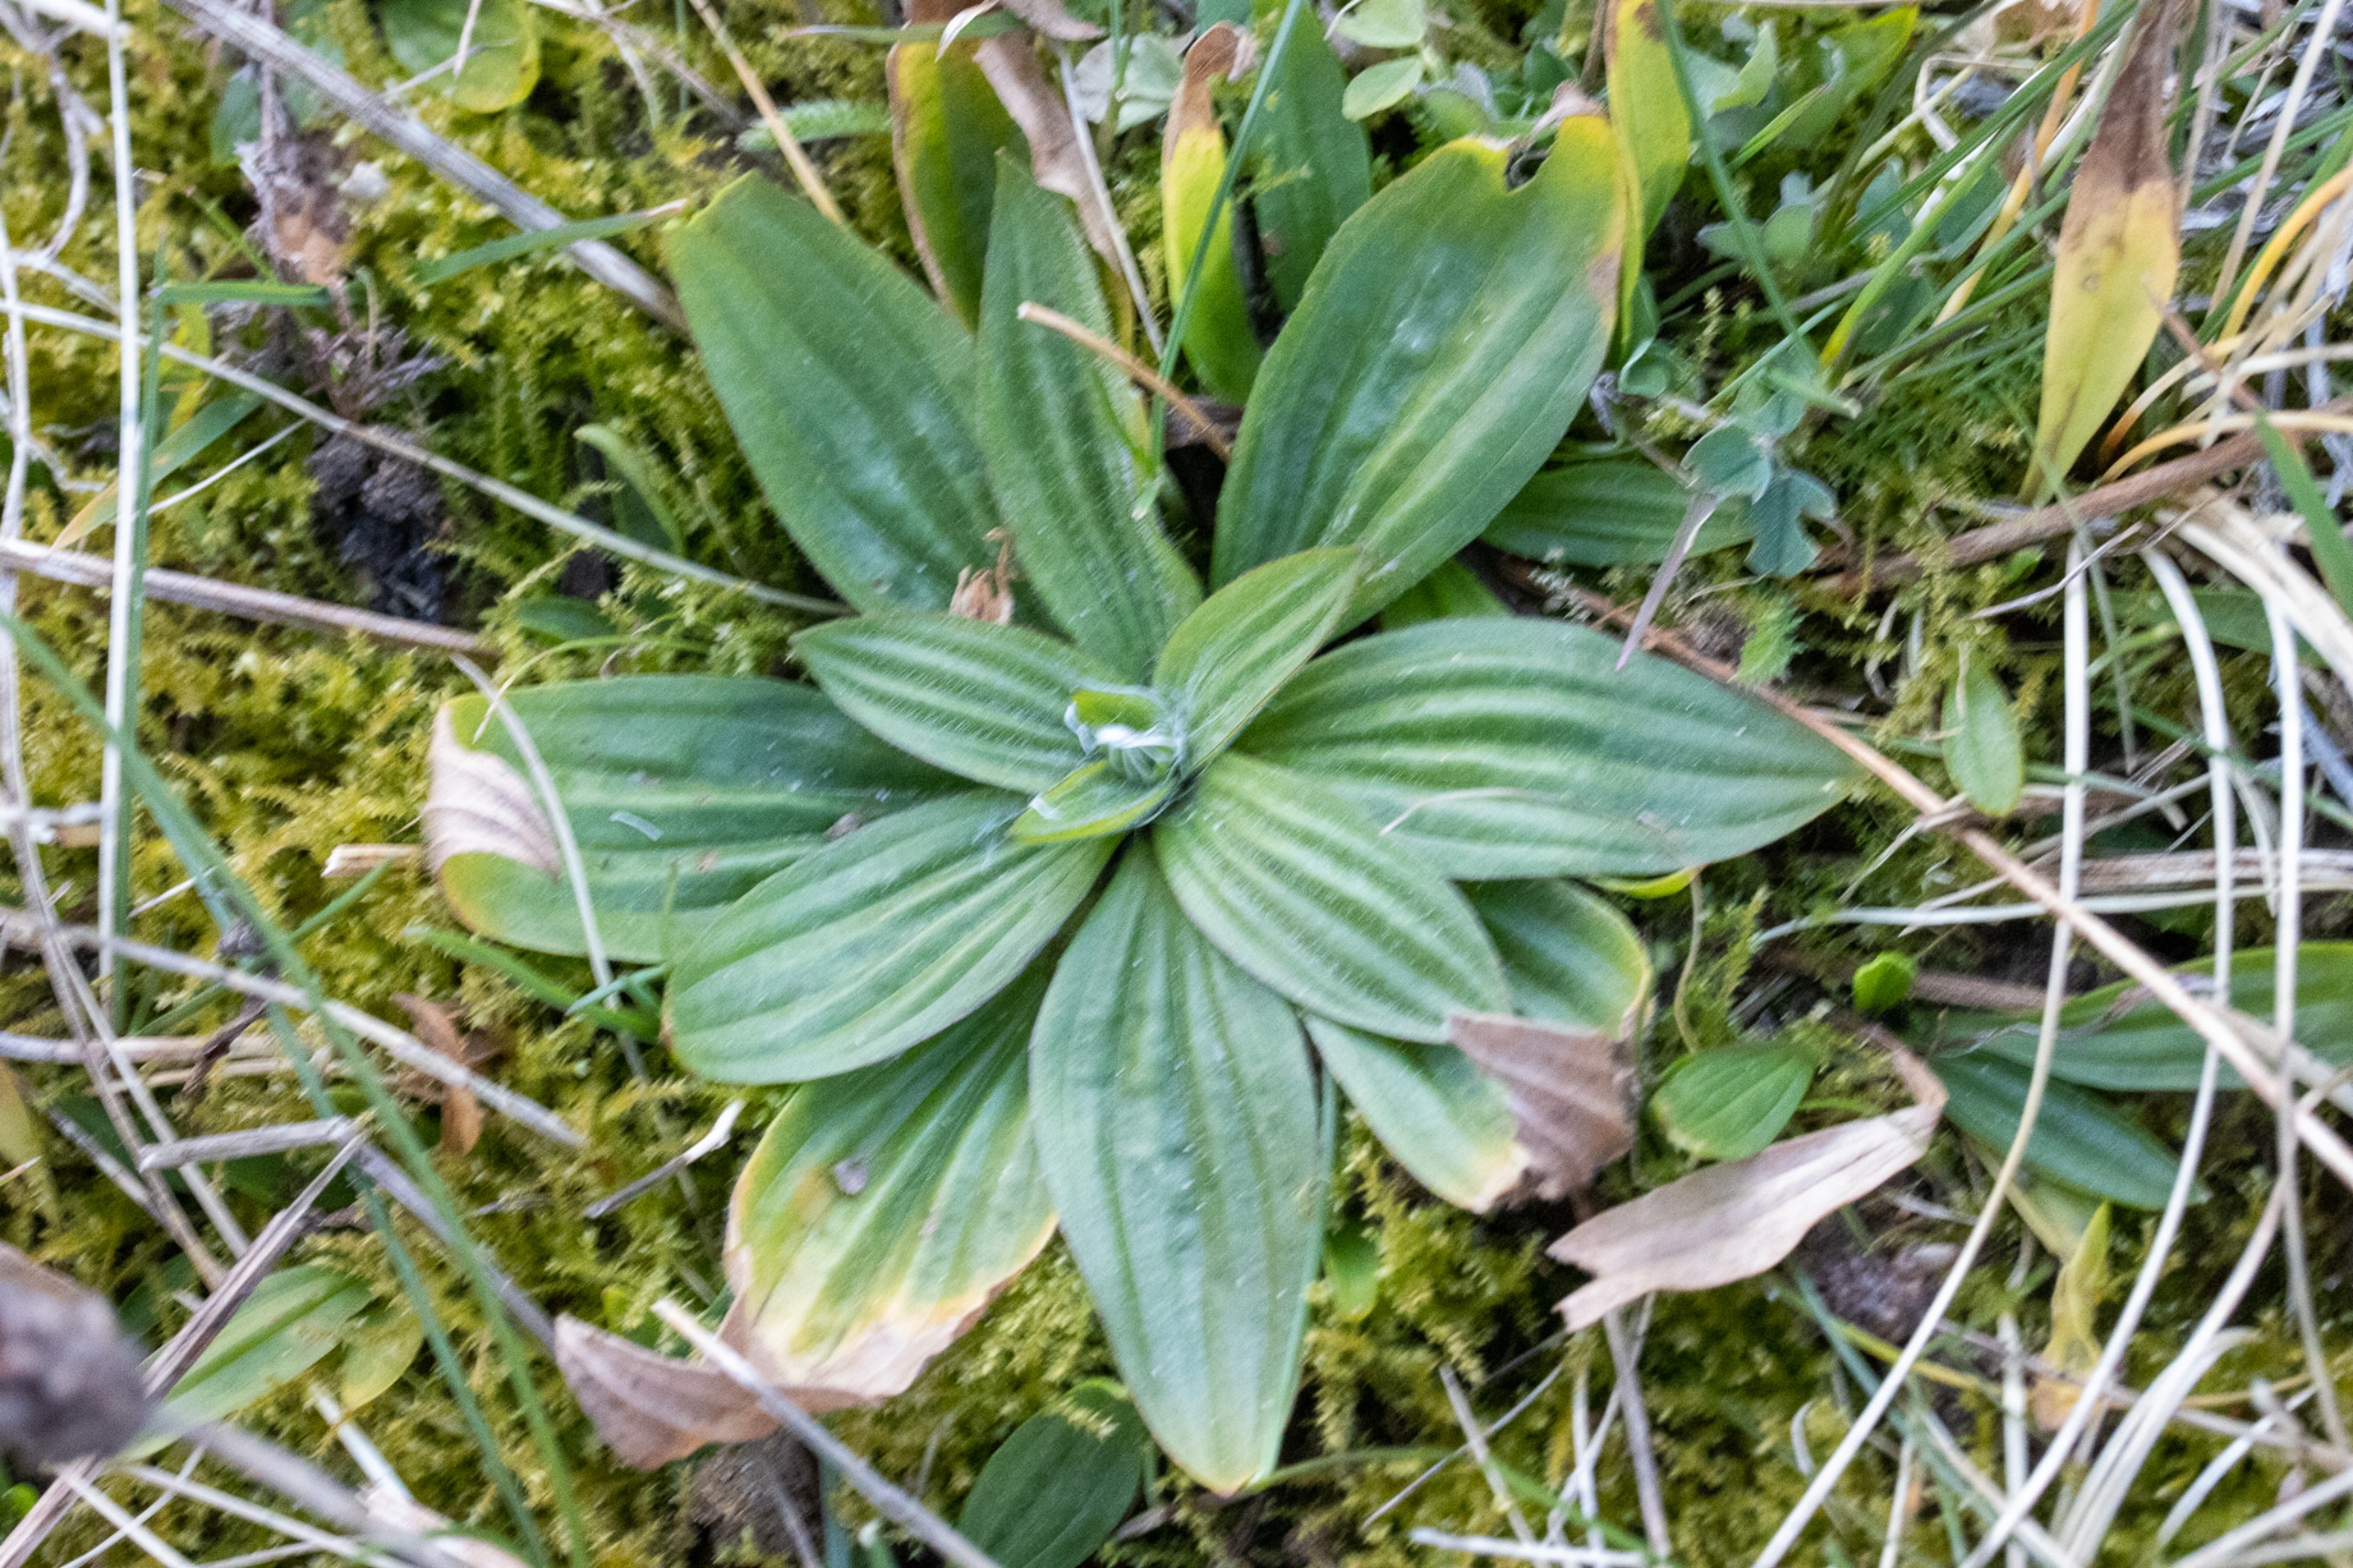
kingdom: Plantae
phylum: Tracheophyta
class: Magnoliopsida
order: Lamiales
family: Plantaginaceae
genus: Plantago
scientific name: Plantago media
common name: Dunet vejbred
